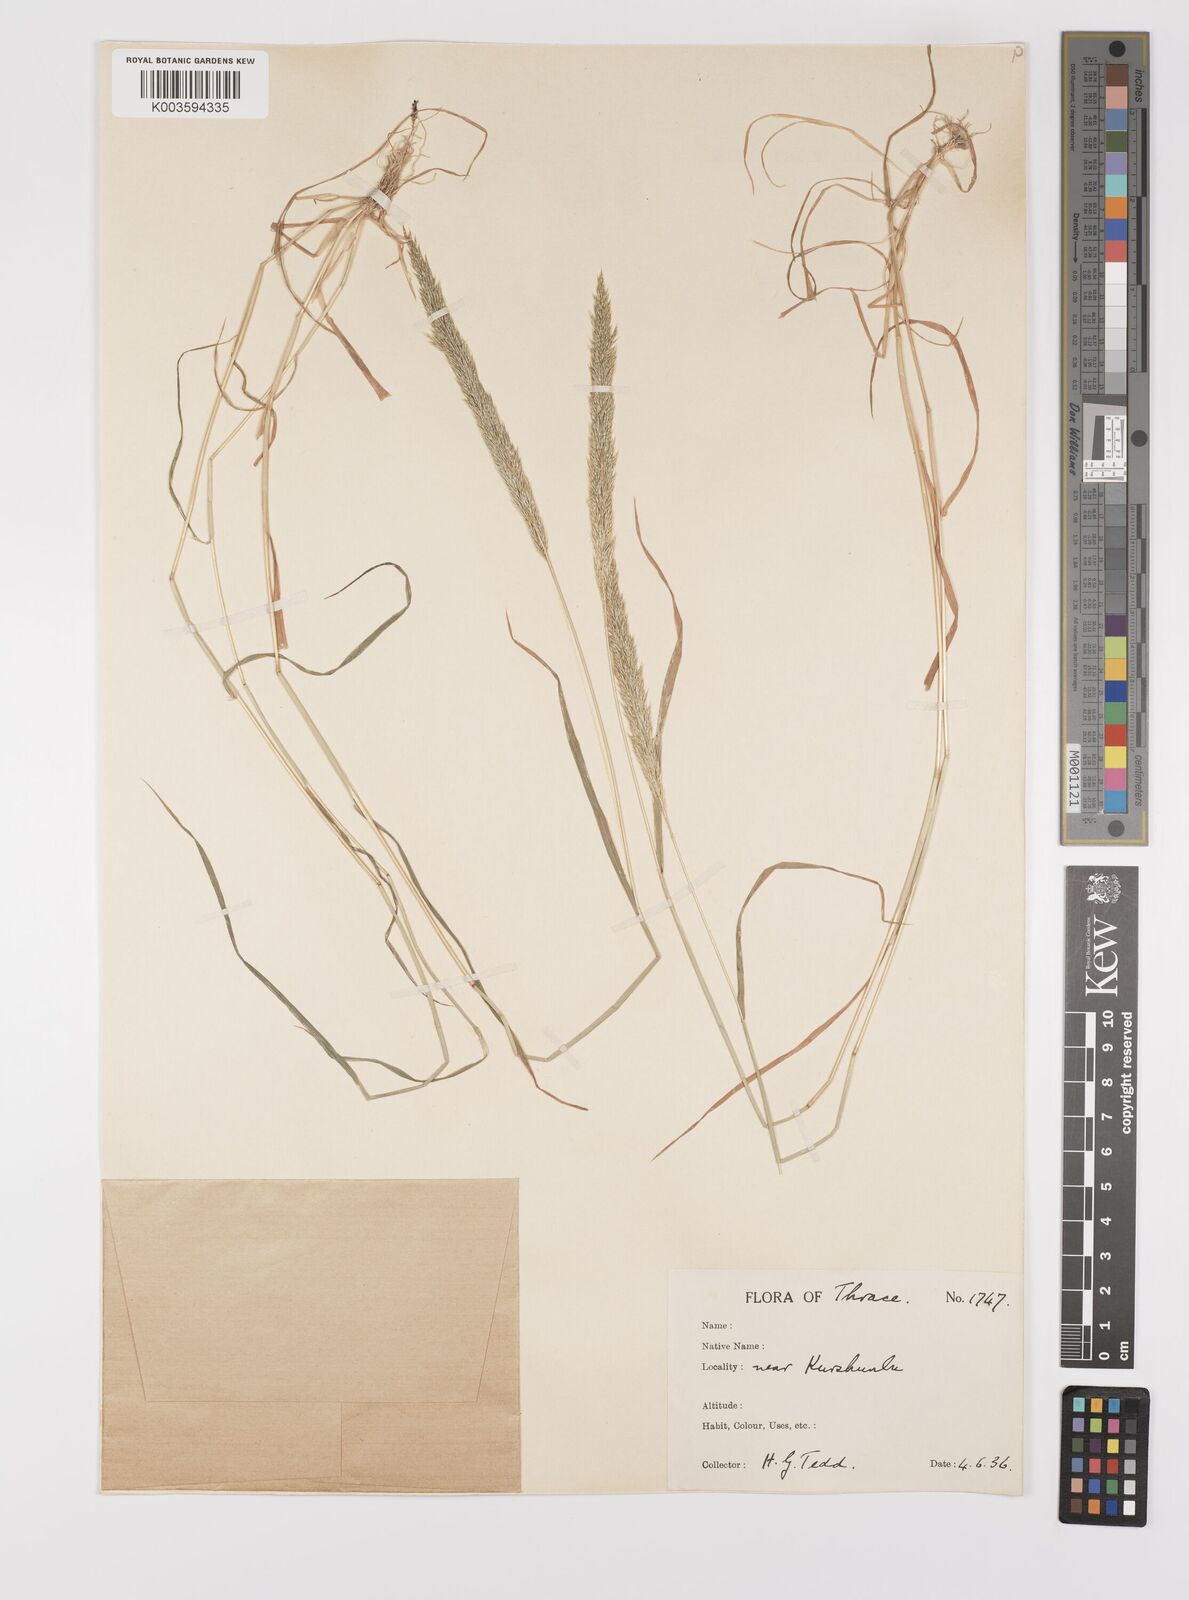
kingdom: Plantae
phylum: Tracheophyta
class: Liliopsida
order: Poales
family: Poaceae
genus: Gastridium
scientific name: Gastridium ventricosum
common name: Nit-grass
